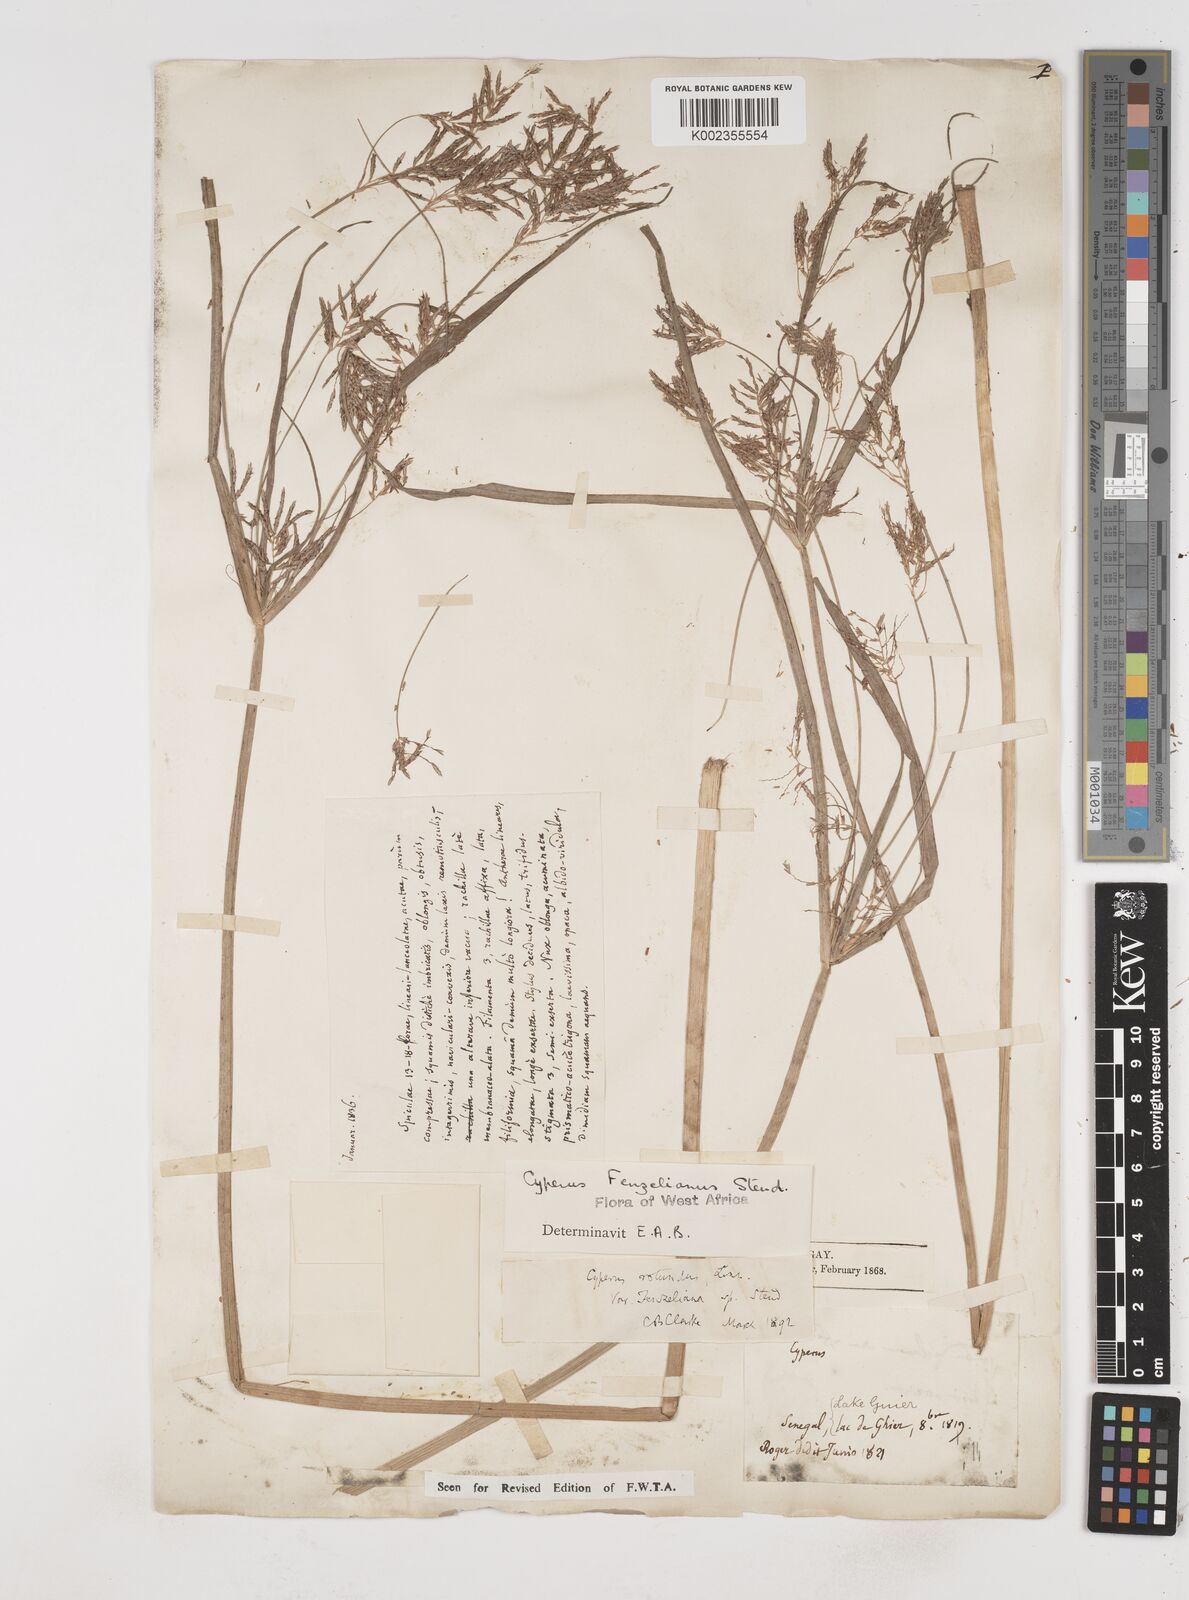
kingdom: Plantae
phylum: Tracheophyta
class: Liliopsida
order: Poales
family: Cyperaceae
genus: Cyperus
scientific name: Cyperus longus
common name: Galingale
